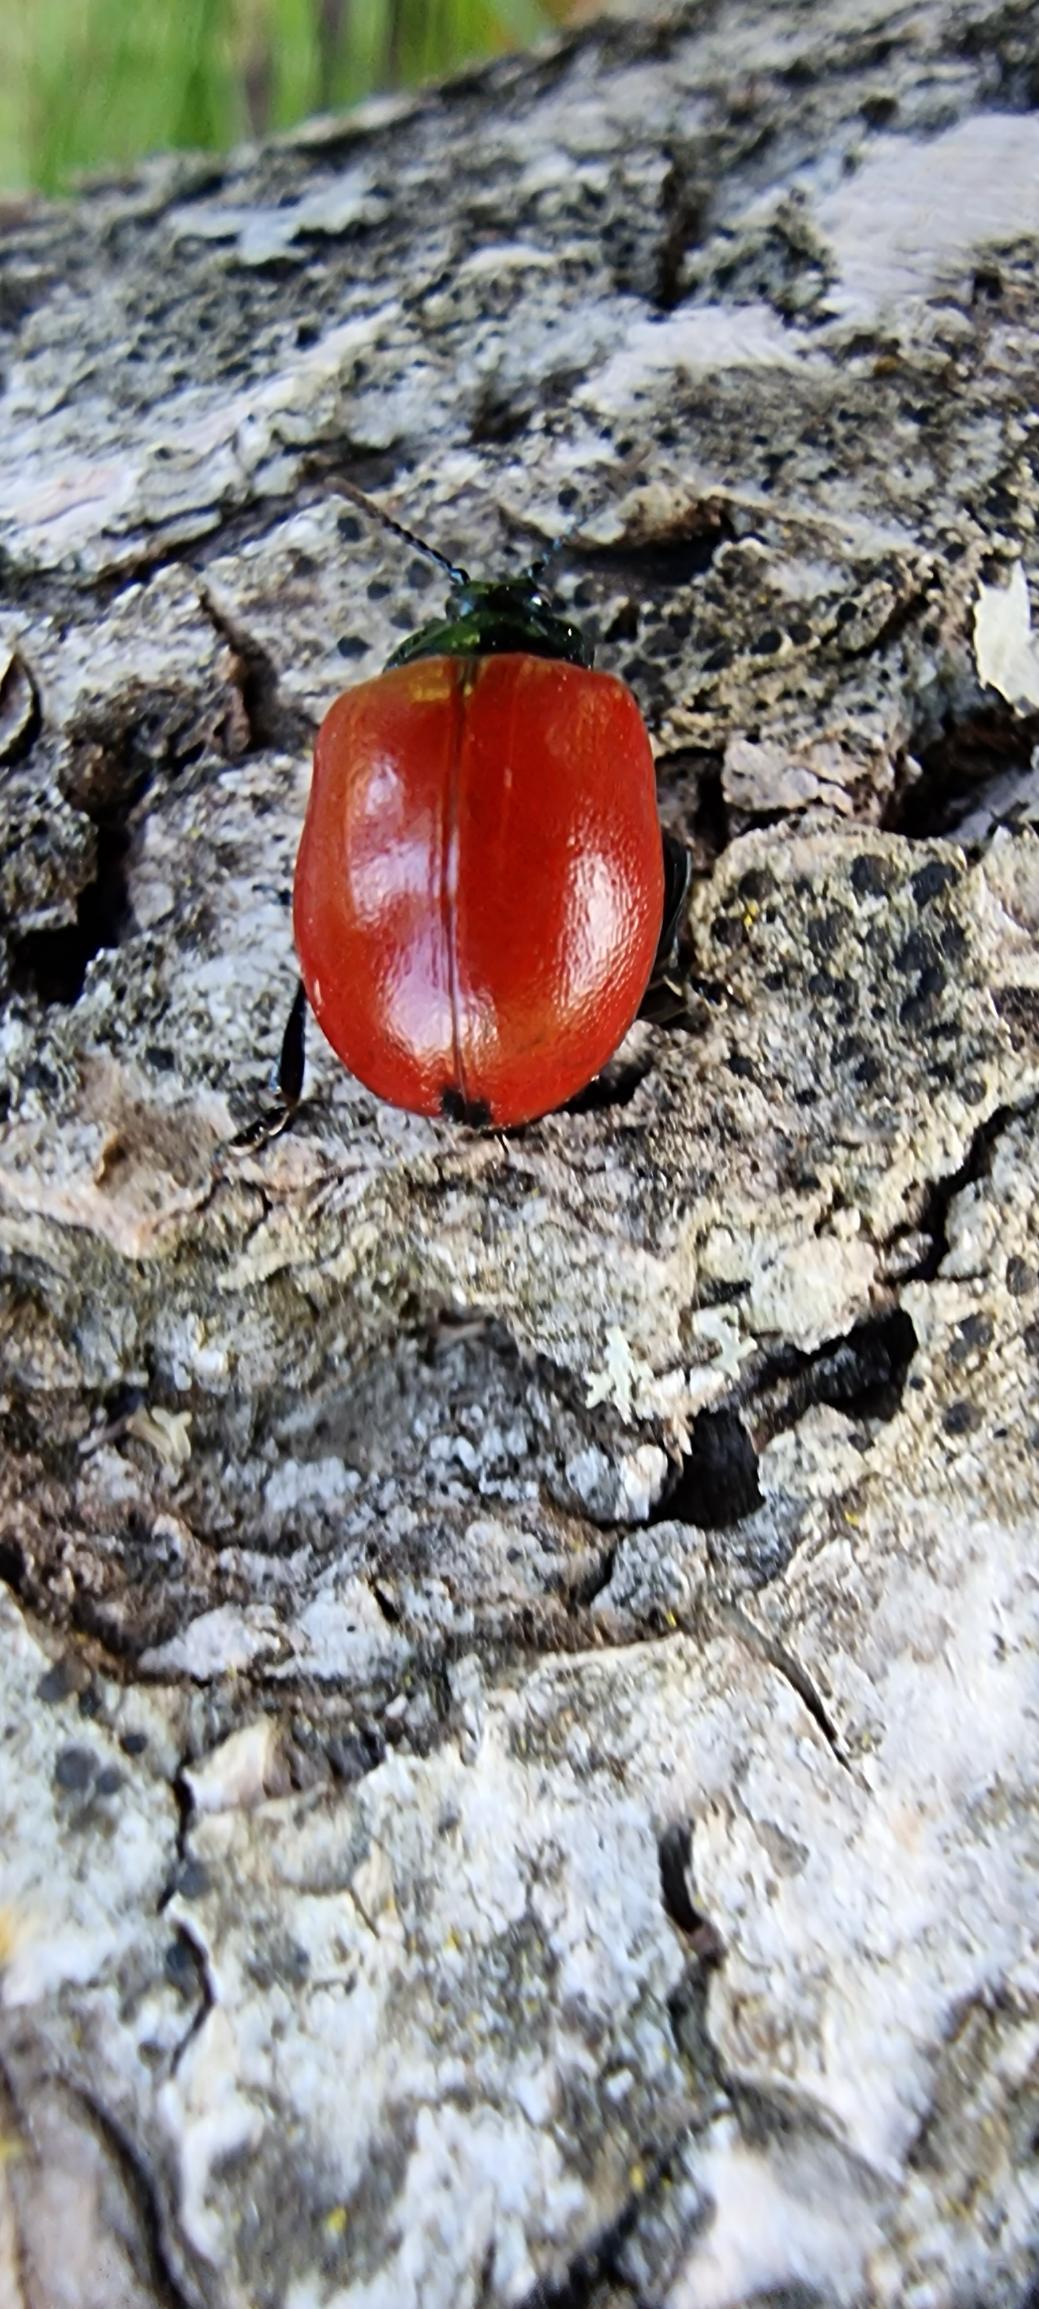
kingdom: Animalia
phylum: Arthropoda
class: Insecta
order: Coleoptera
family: Chrysomelidae
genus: Chrysomela
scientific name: Chrysomela populi
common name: Poppelbladbille
